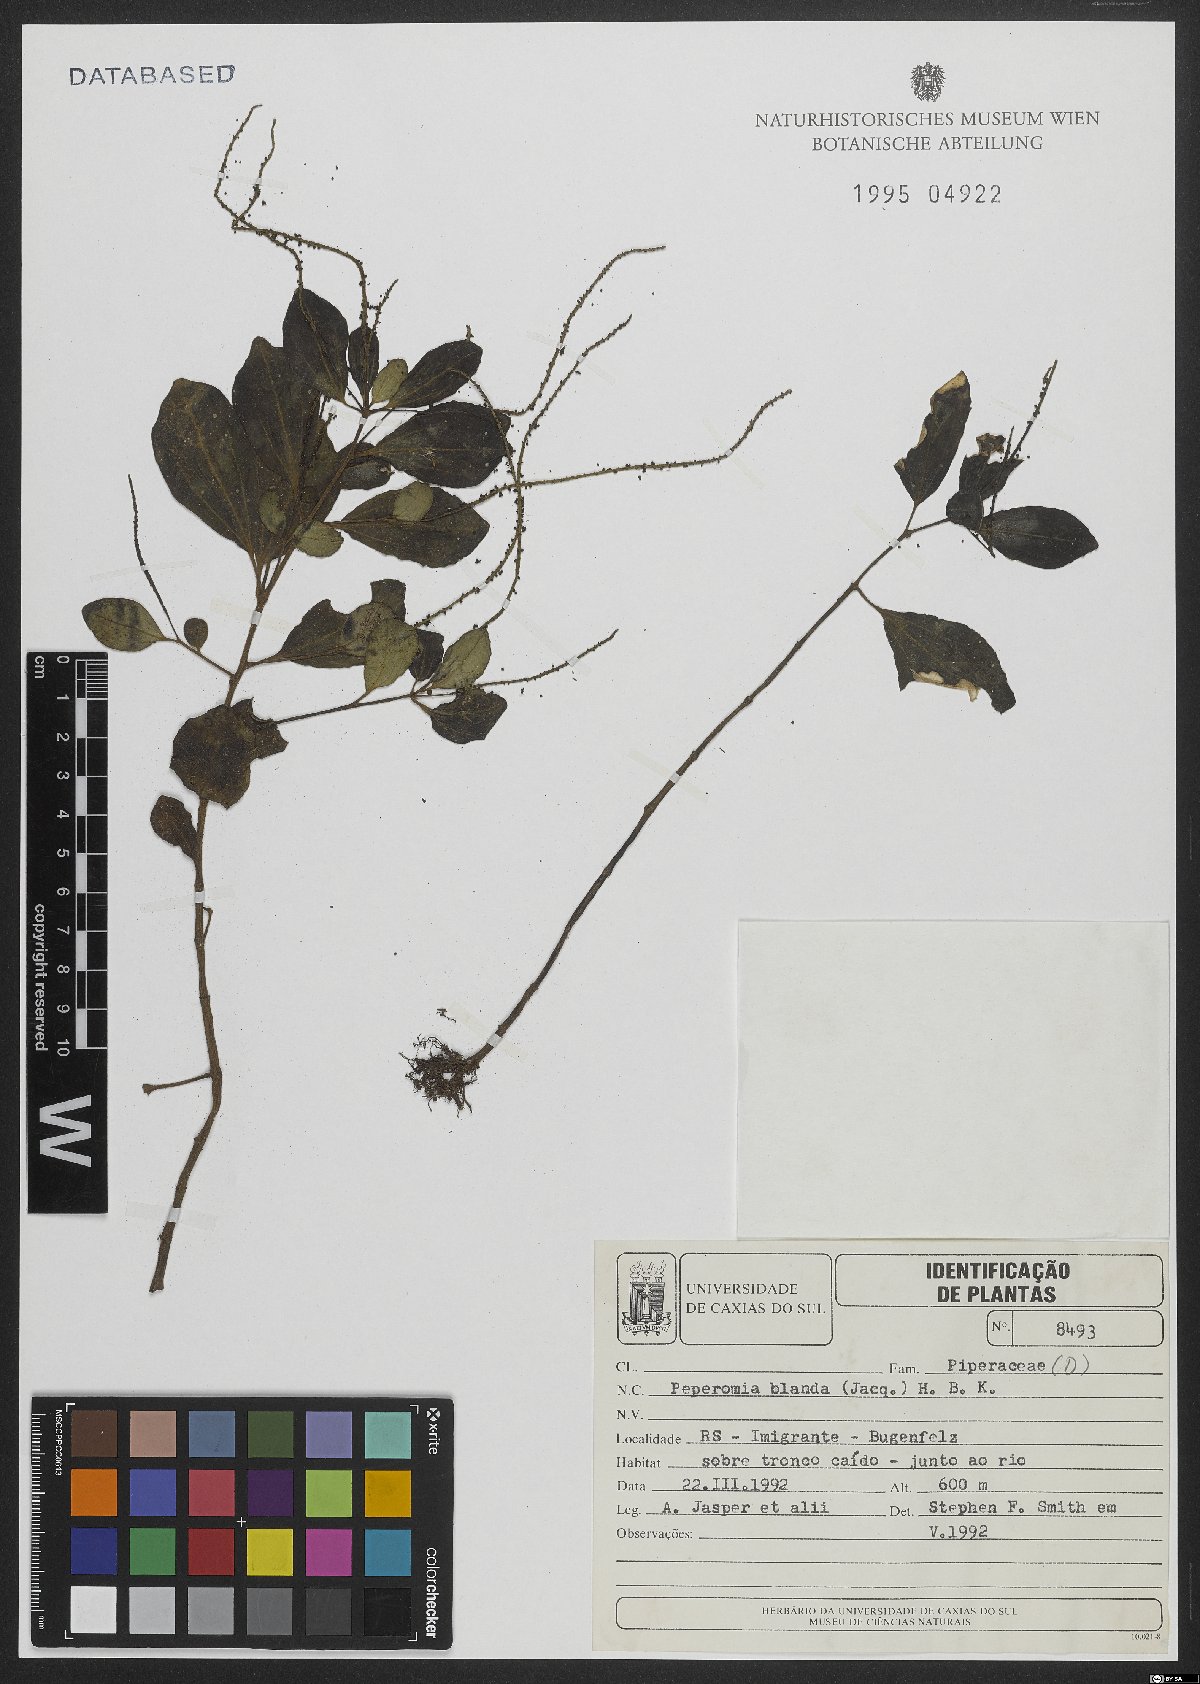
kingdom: Plantae
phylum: Tracheophyta
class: Magnoliopsida
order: Piperales
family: Piperaceae
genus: Peperomia
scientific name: Peperomia blanda
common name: Arid-land peperomia
